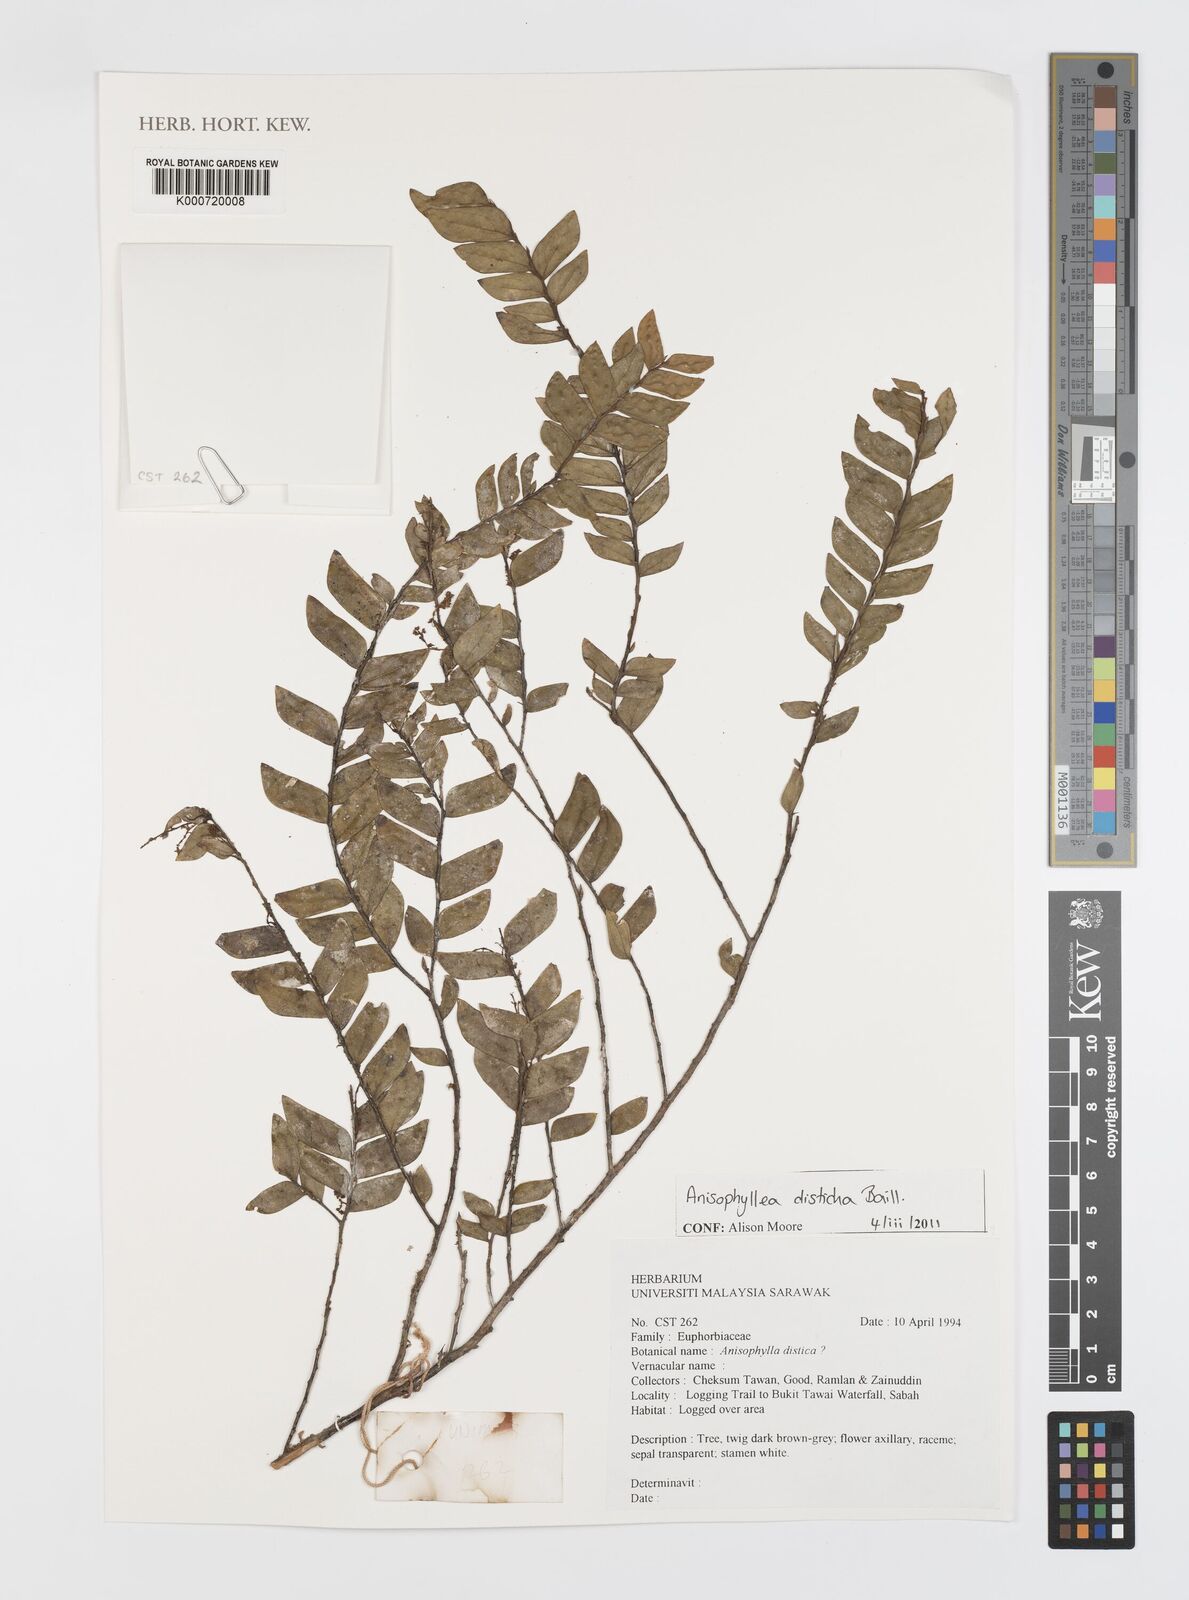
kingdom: Plantae
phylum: Tracheophyta
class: Magnoliopsida
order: Cucurbitales
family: Anisophylleaceae
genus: Anisophyllea
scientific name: Anisophyllea disticha
